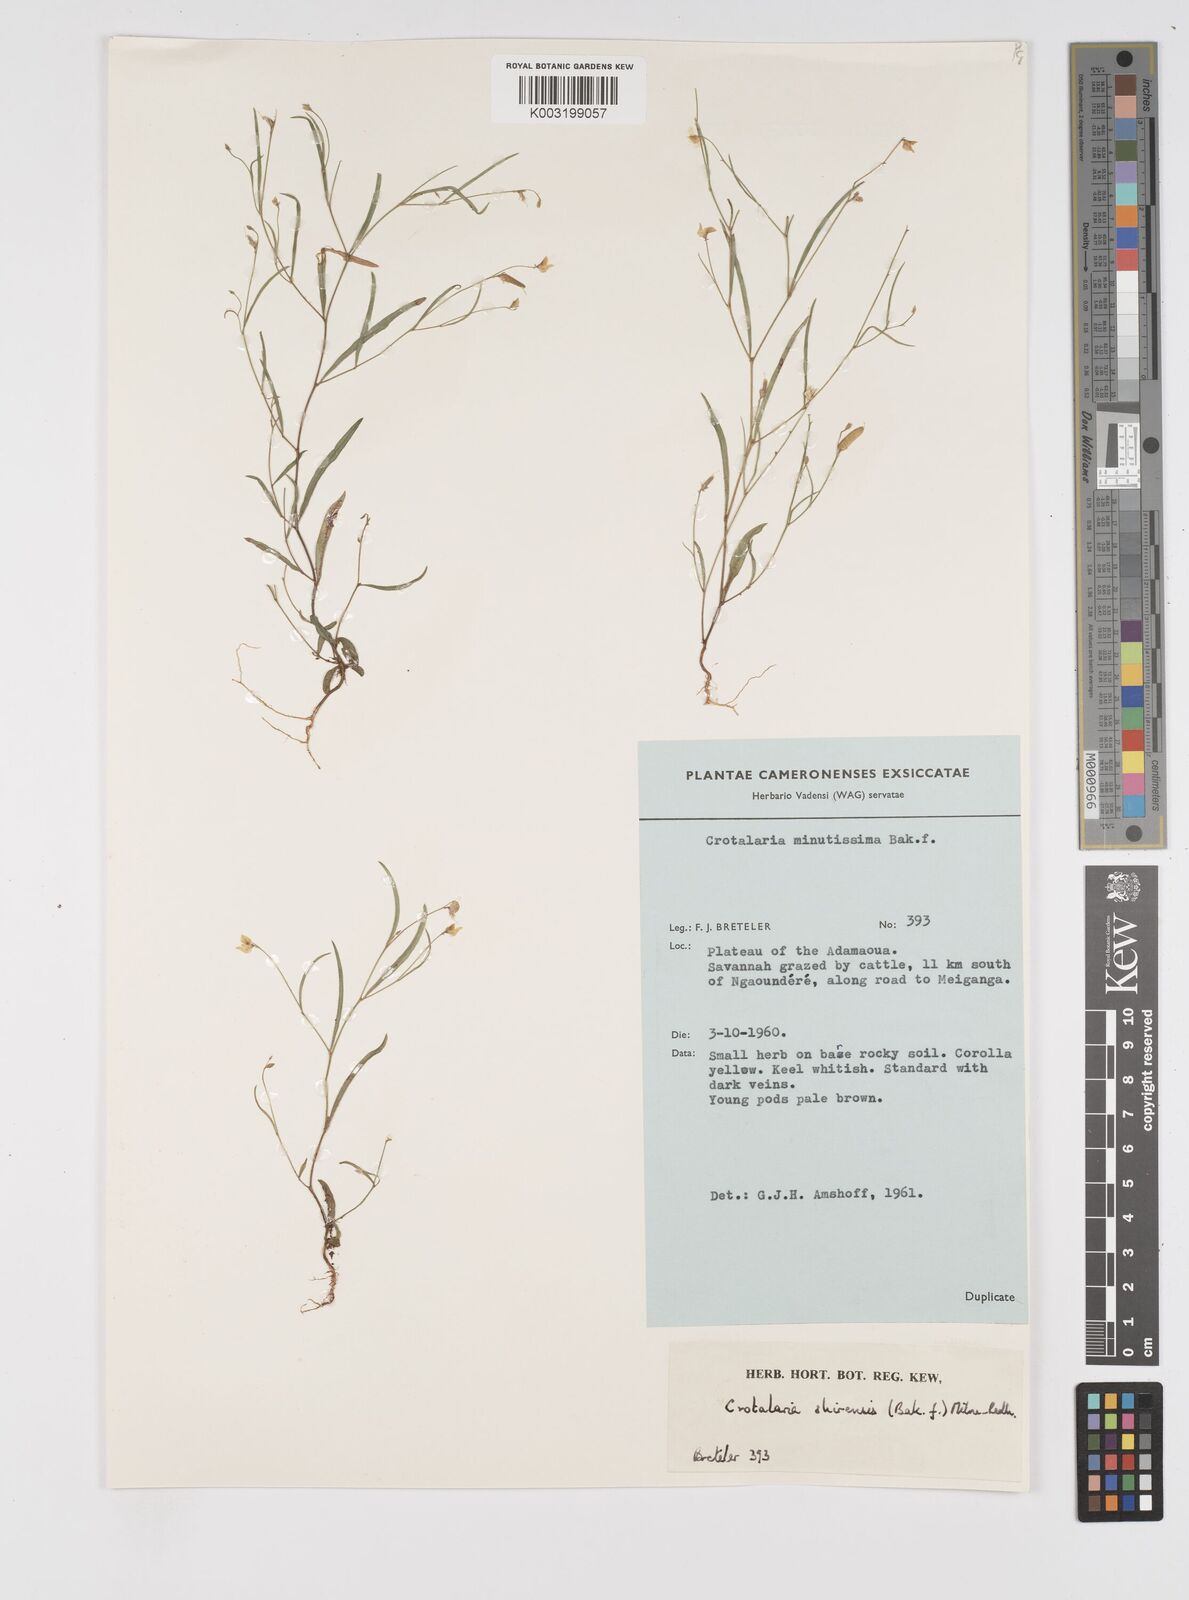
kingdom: Plantae
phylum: Tracheophyta
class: Magnoliopsida
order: Fabales
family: Fabaceae
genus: Crotalaria
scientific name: Crotalaria shirensis
